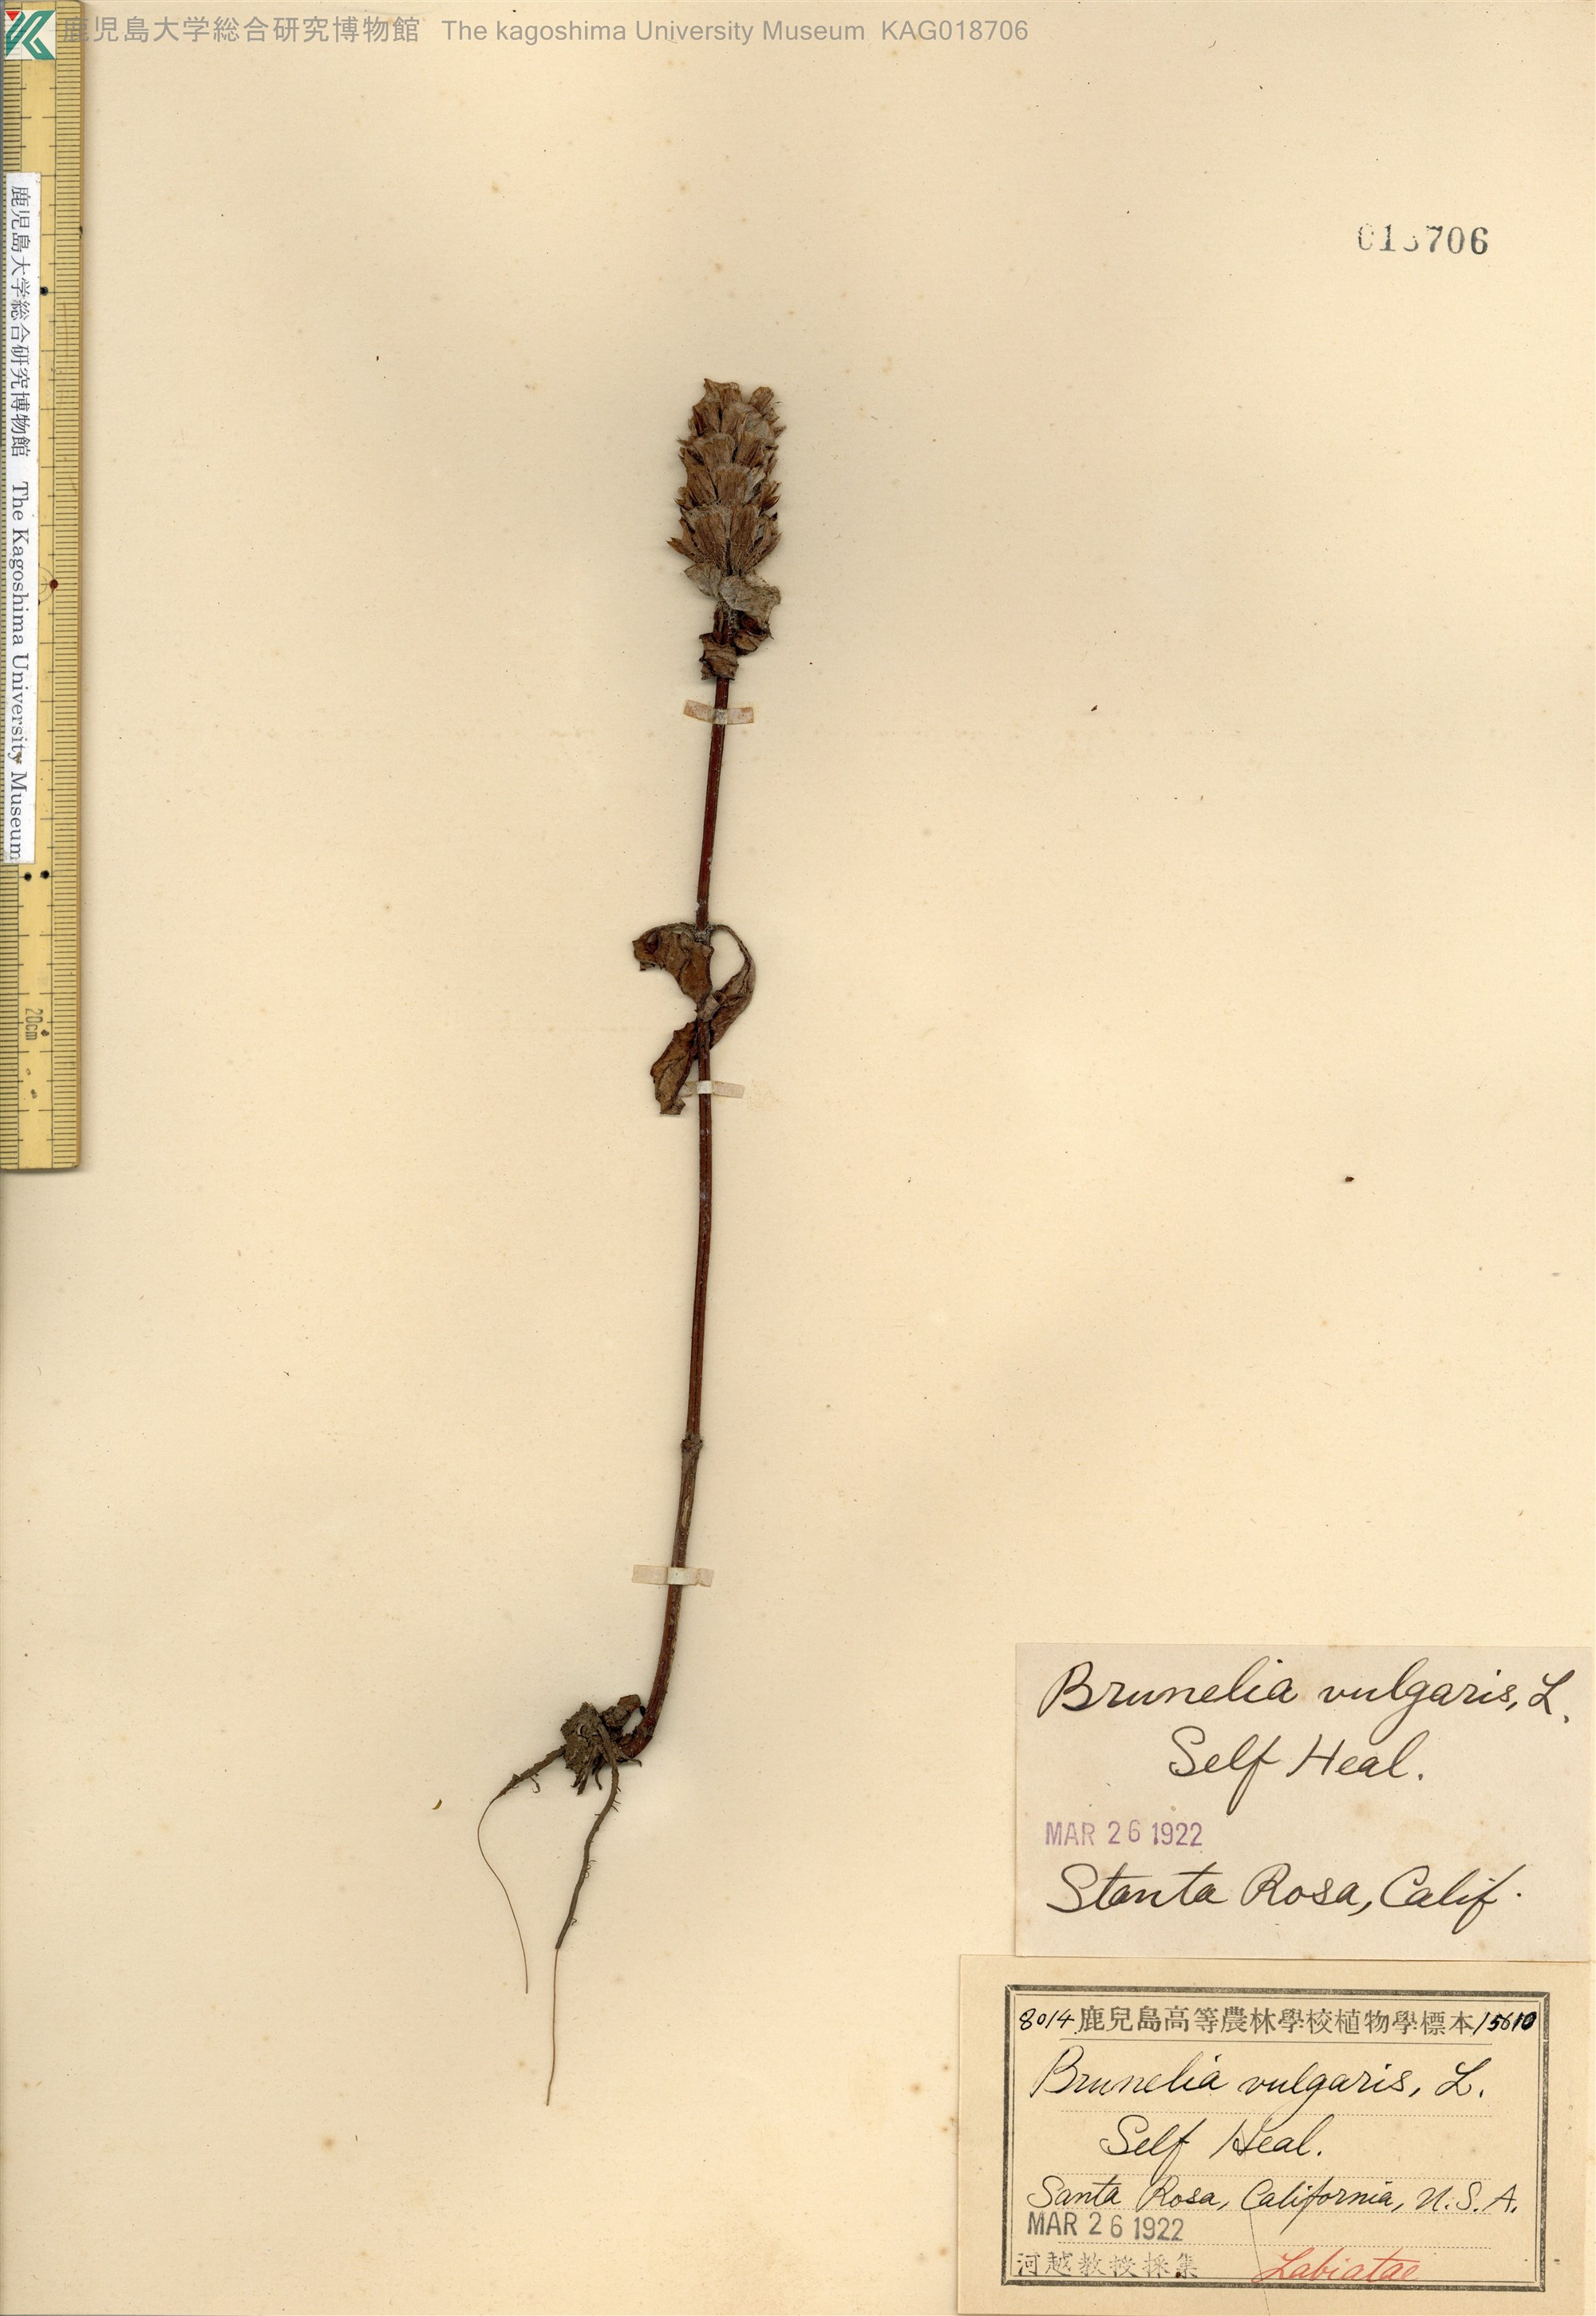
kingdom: Plantae
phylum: Tracheophyta
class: Magnoliopsida
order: Lamiales
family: Lamiaceae
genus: Prunella
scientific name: Prunella vulgaris
